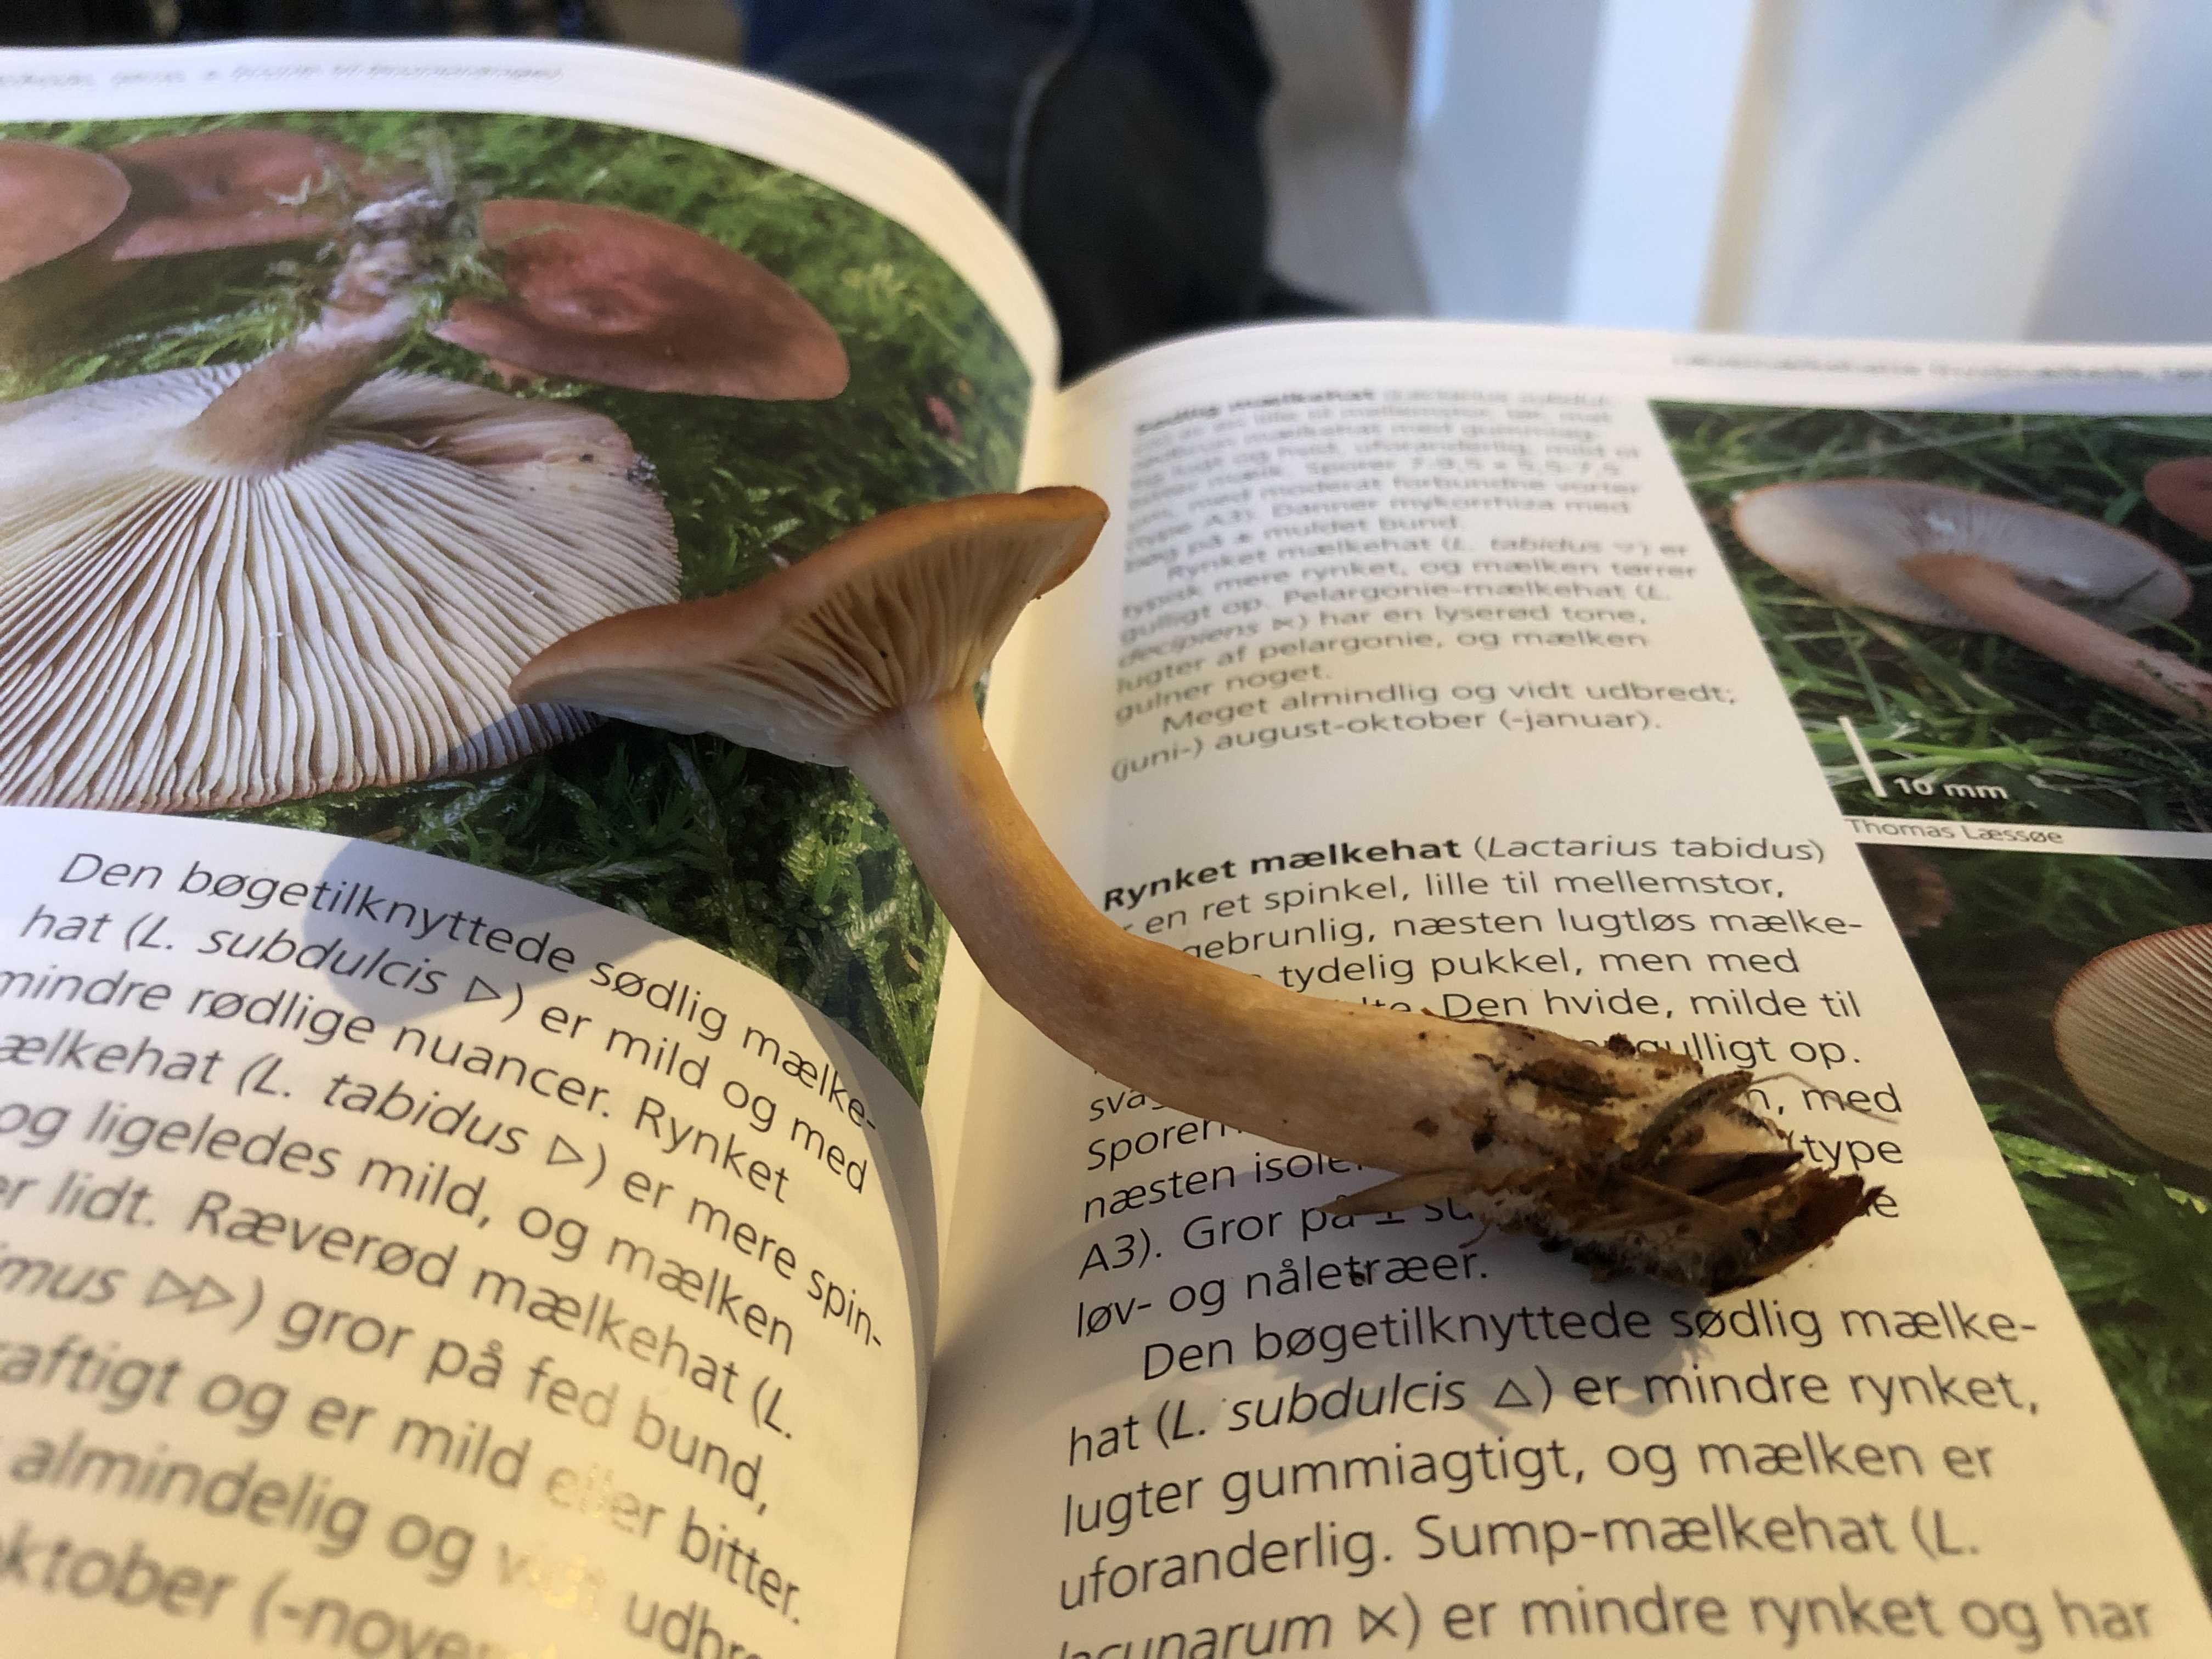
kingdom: Fungi
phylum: Basidiomycota
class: Agaricomycetes
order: Russulales
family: Russulaceae
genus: Lactarius
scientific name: Lactarius subdulcis
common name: sødlig mælkehat
